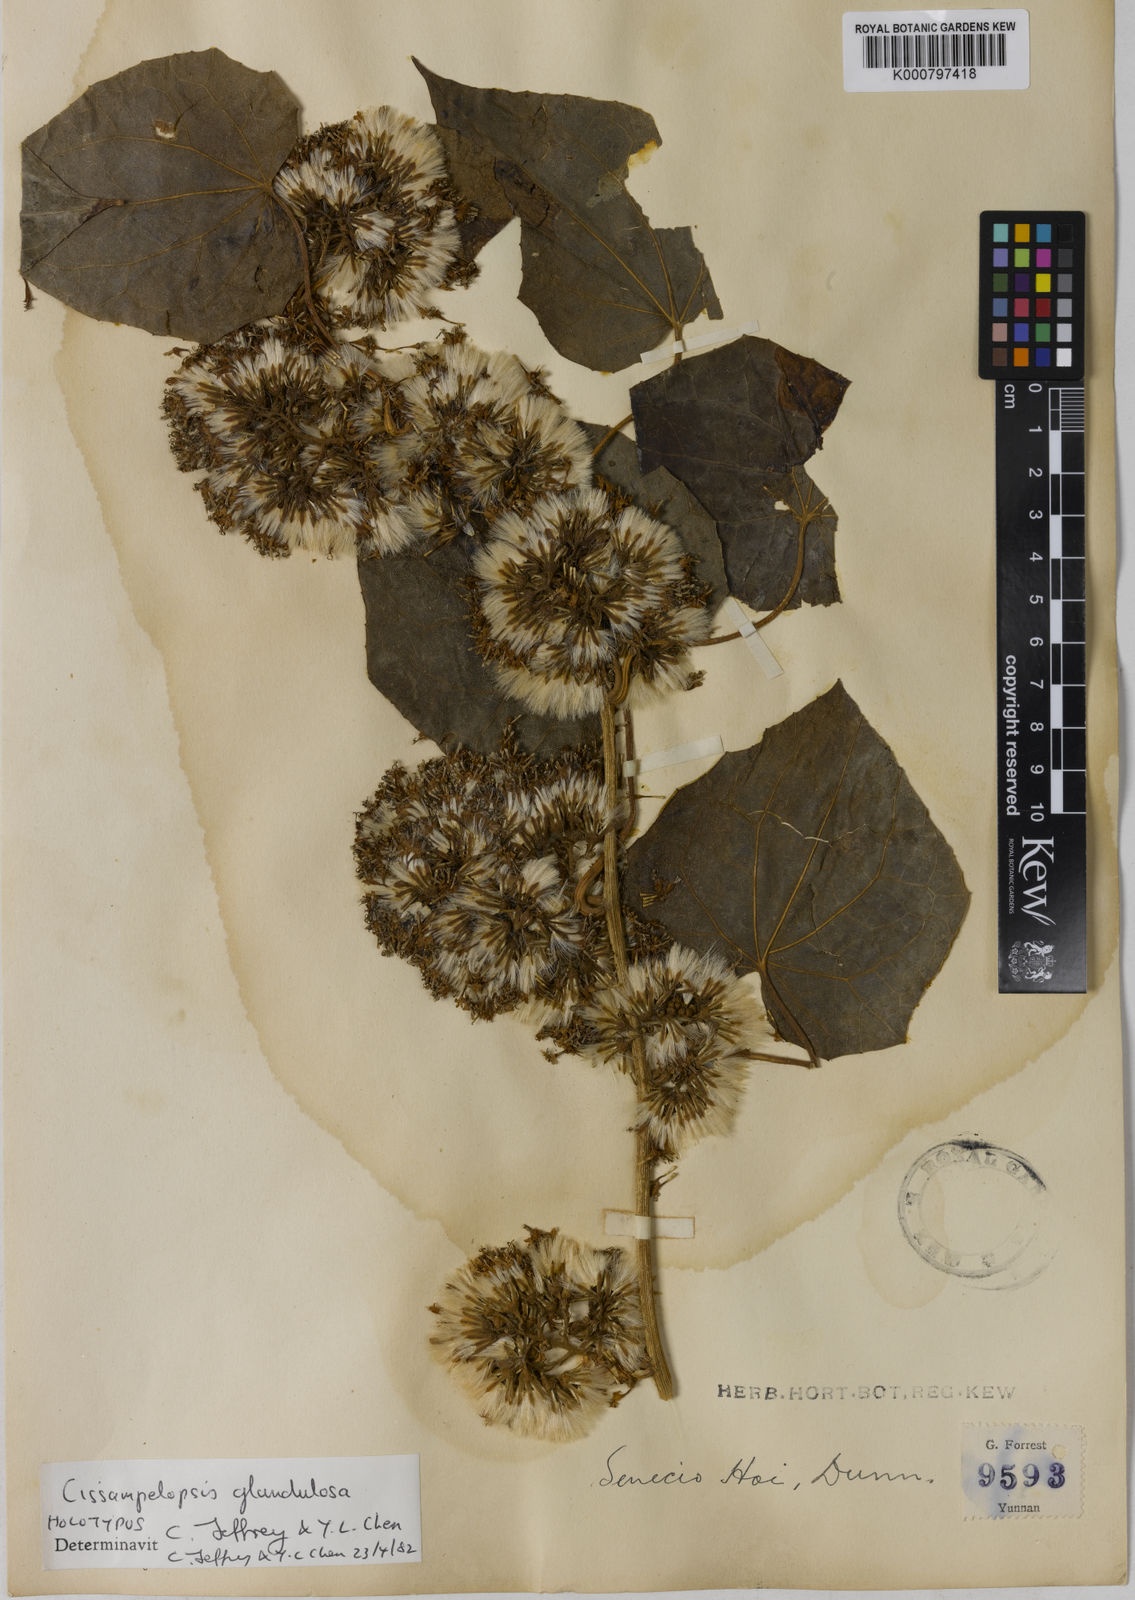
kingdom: Plantae
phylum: Tracheophyta
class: Magnoliopsida
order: Asterales
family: Asteraceae
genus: Cissampelopsis
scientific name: Cissampelopsis glandulosa
